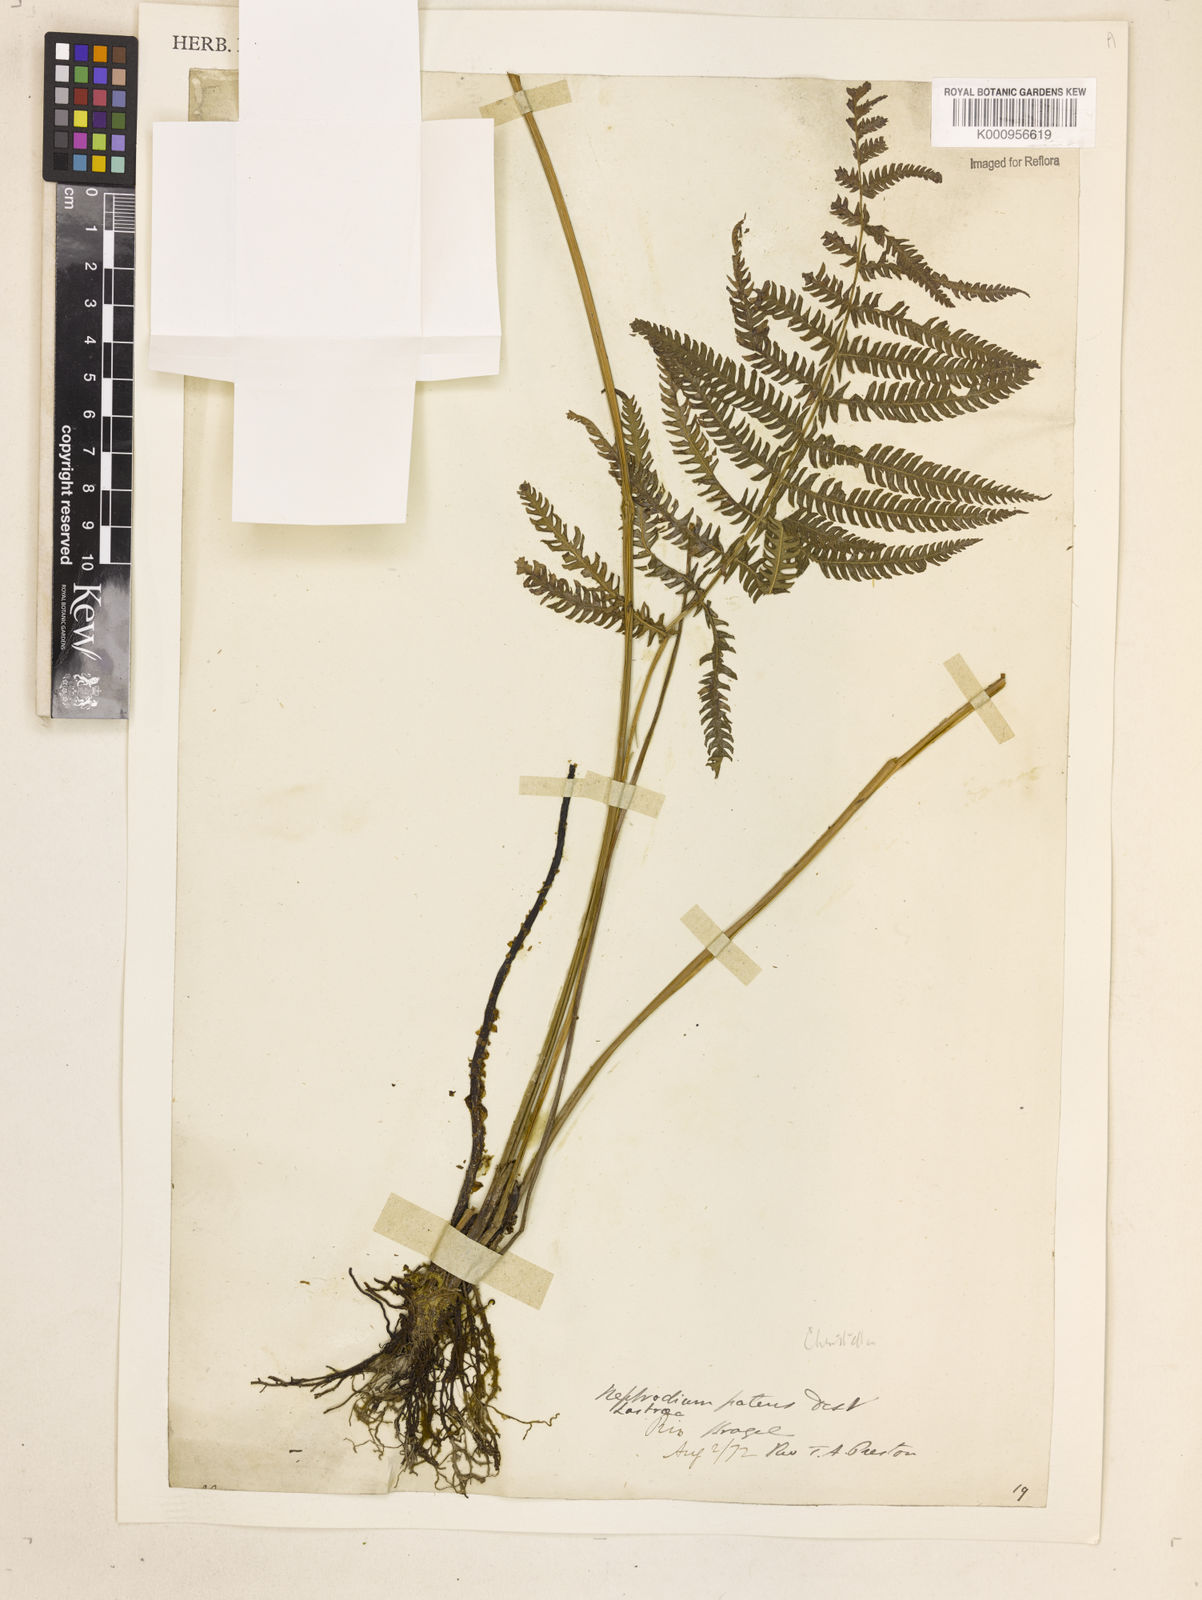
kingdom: Plantae
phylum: Tracheophyta
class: Polypodiopsida
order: Polypodiales
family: Thelypteridaceae
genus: Christella
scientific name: Christella
